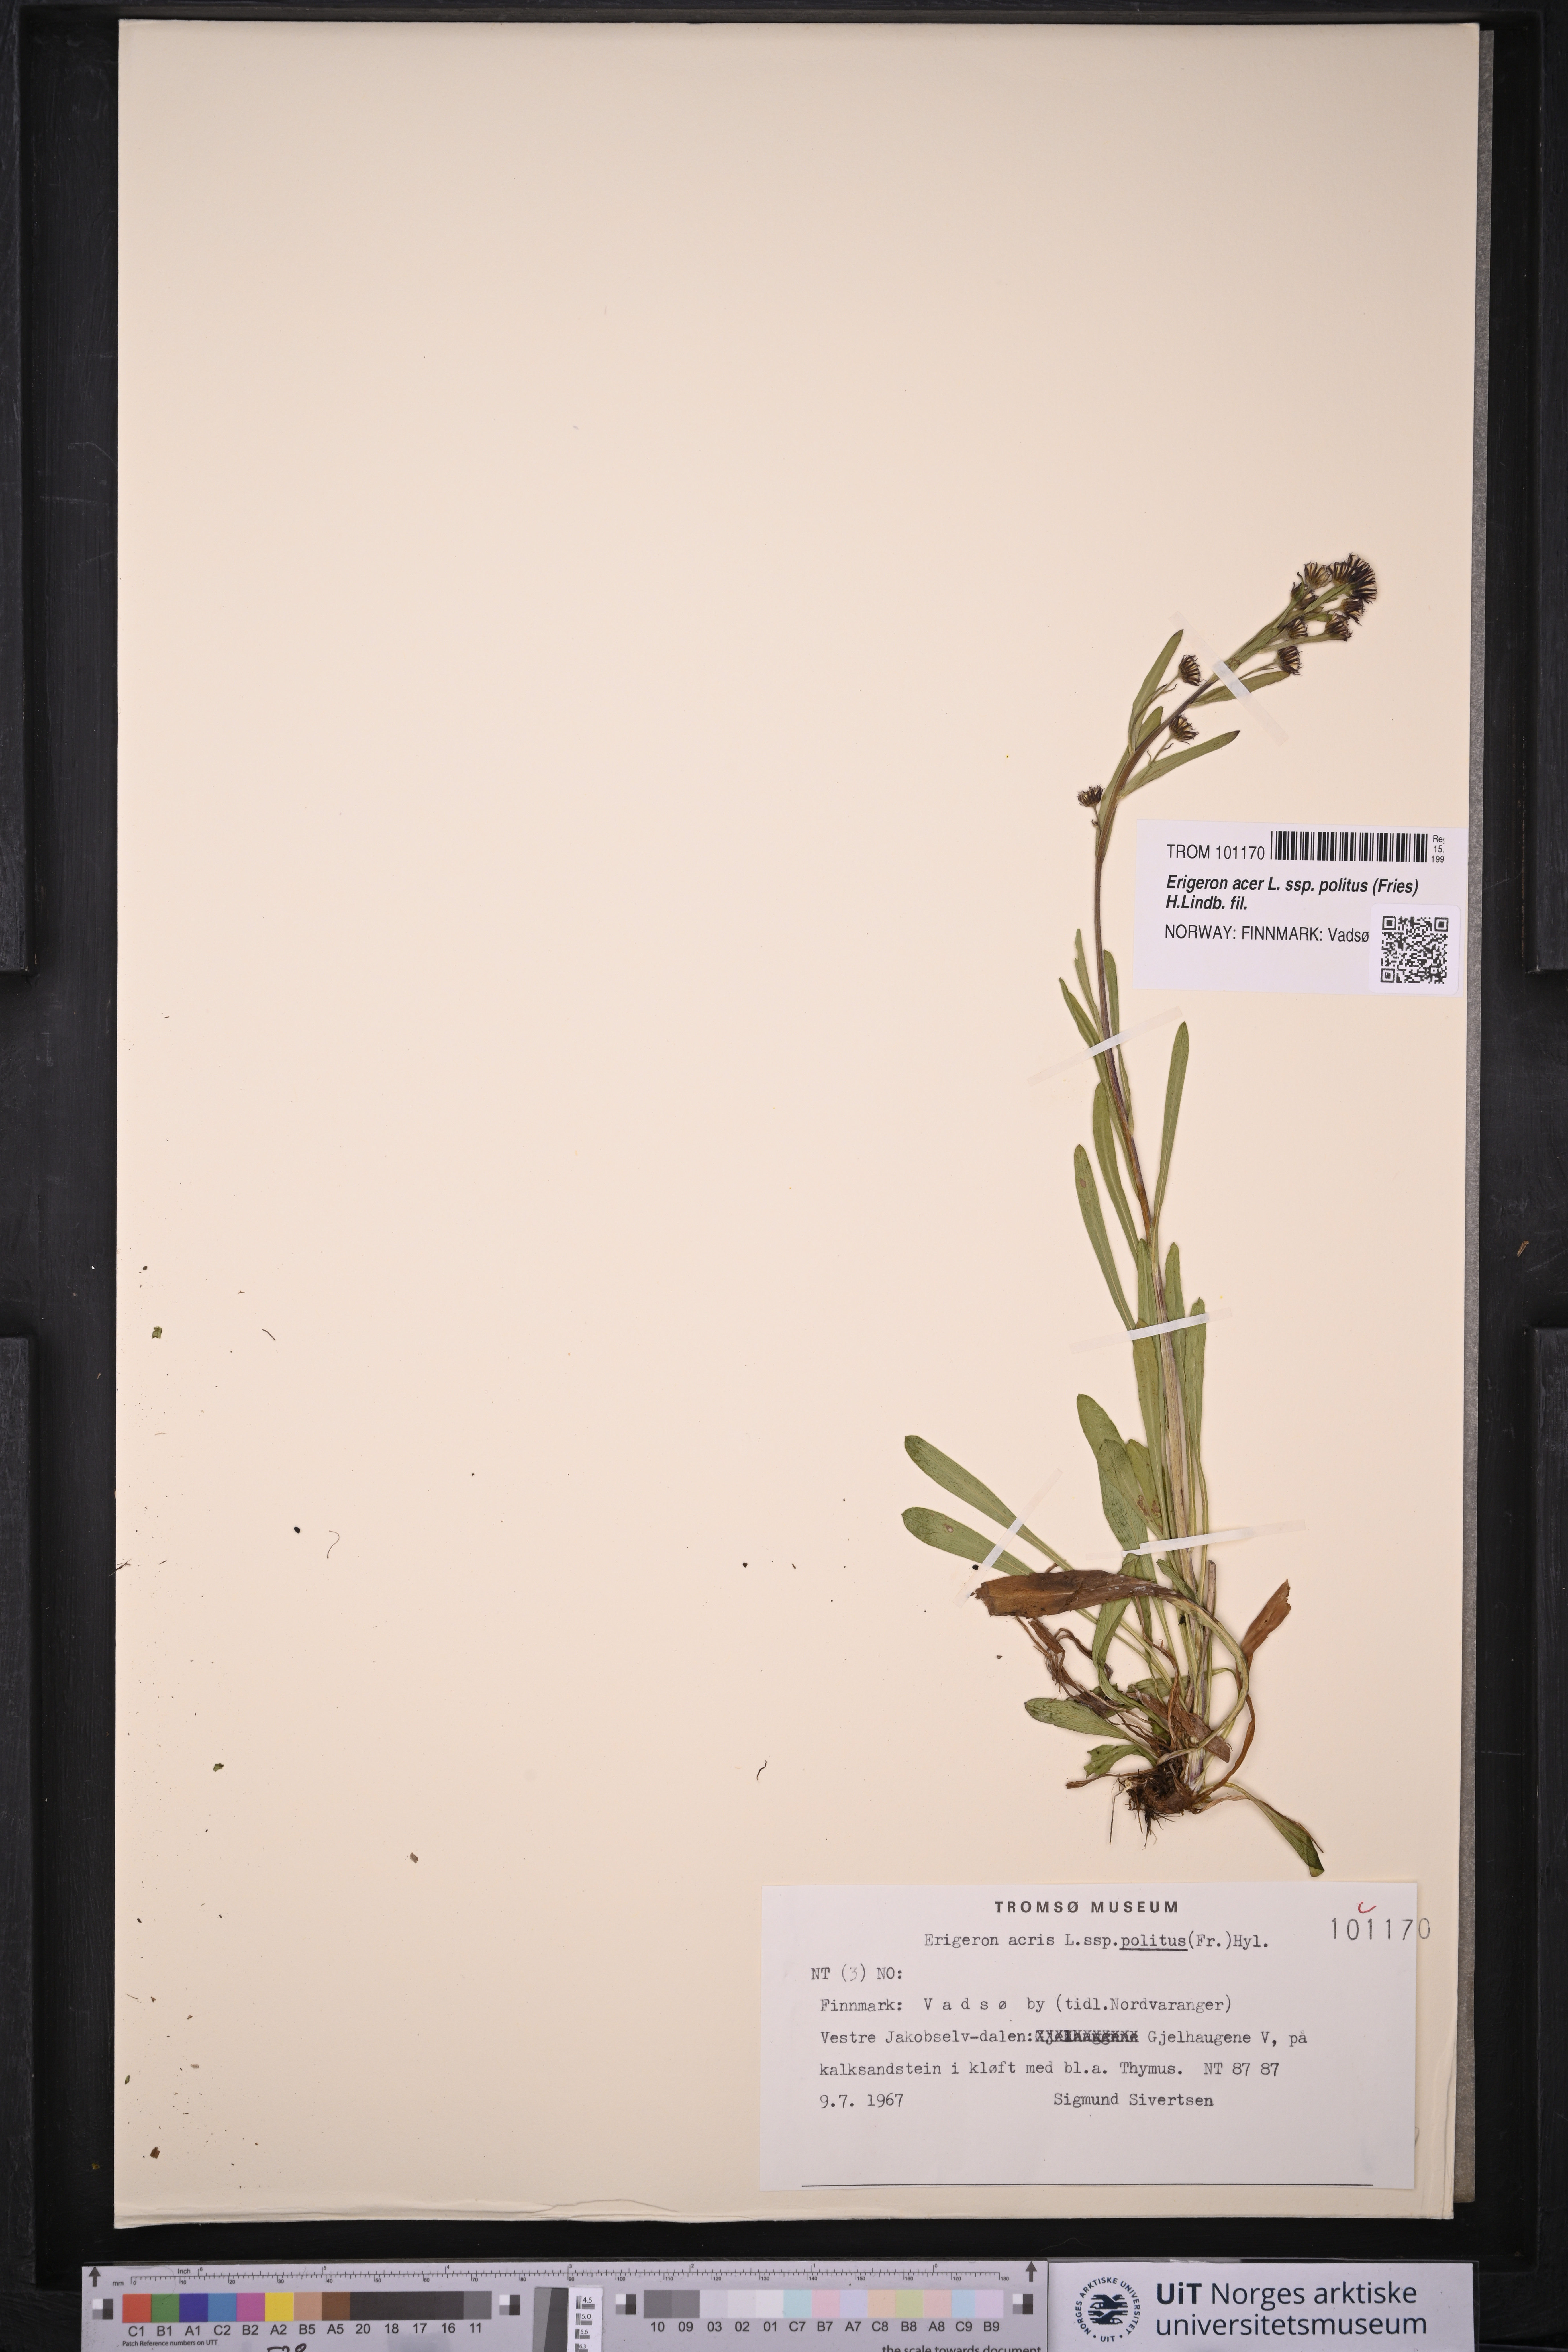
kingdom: Plantae
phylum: Tracheophyta
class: Magnoliopsida
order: Asterales
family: Asteraceae
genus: Erigeron
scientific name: Erigeron politus
